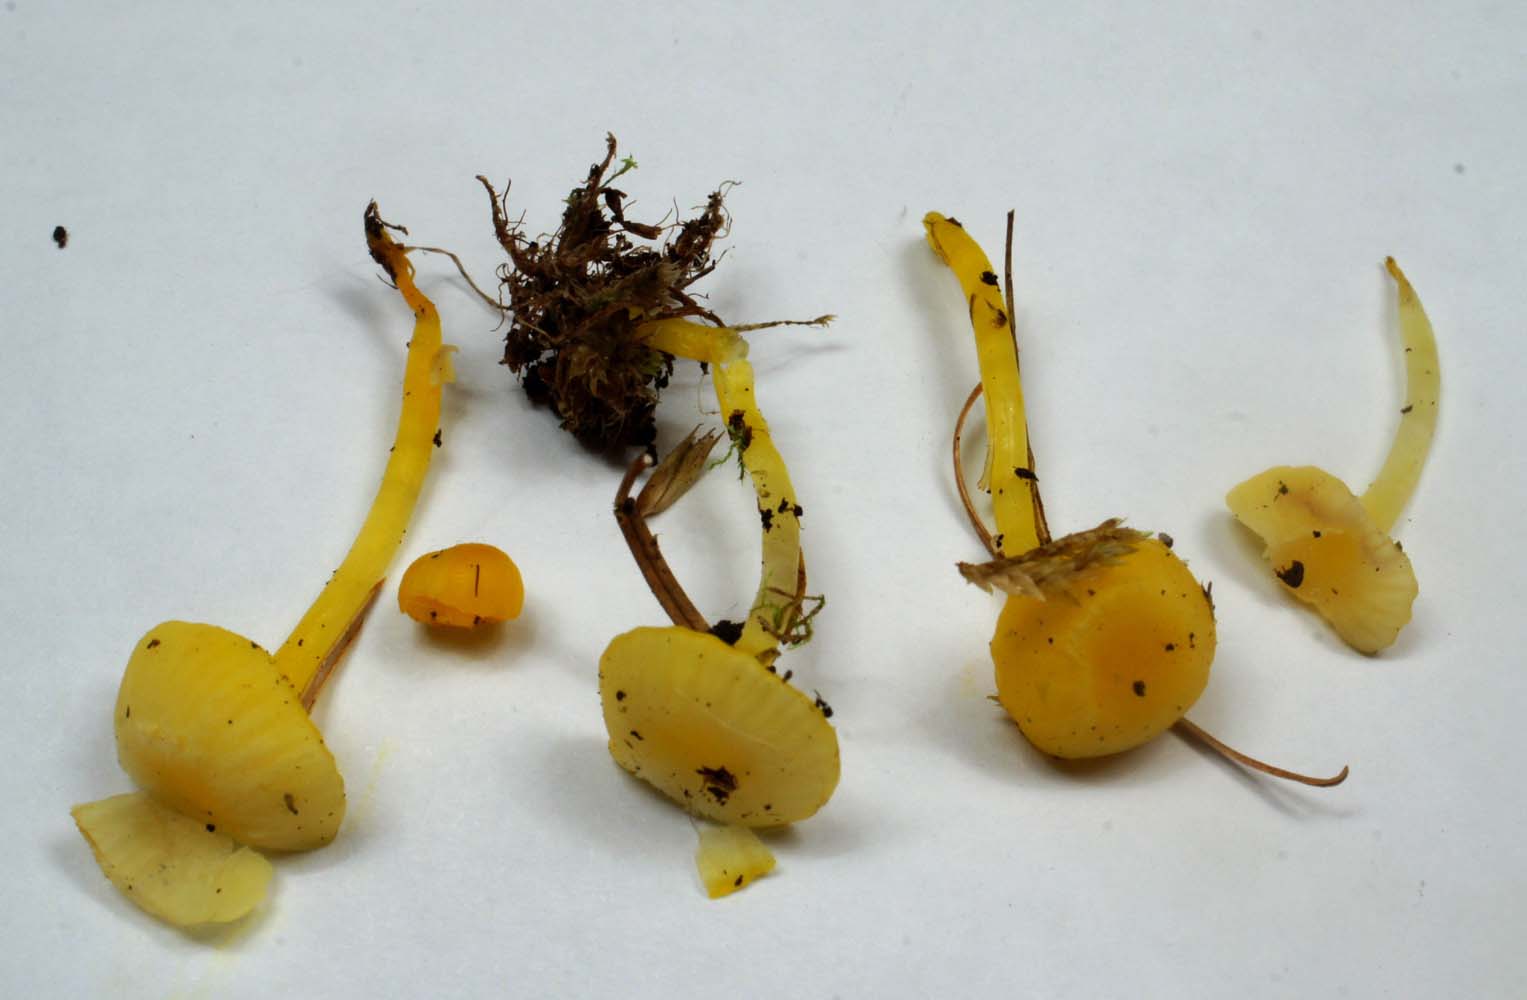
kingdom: Fungi
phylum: Basidiomycota
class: Agaricomycetes
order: Agaricales
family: Hygrophoraceae
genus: Gloioxanthomyces
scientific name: Gloioxanthomyces vitellinus
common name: kromgul vokshat
